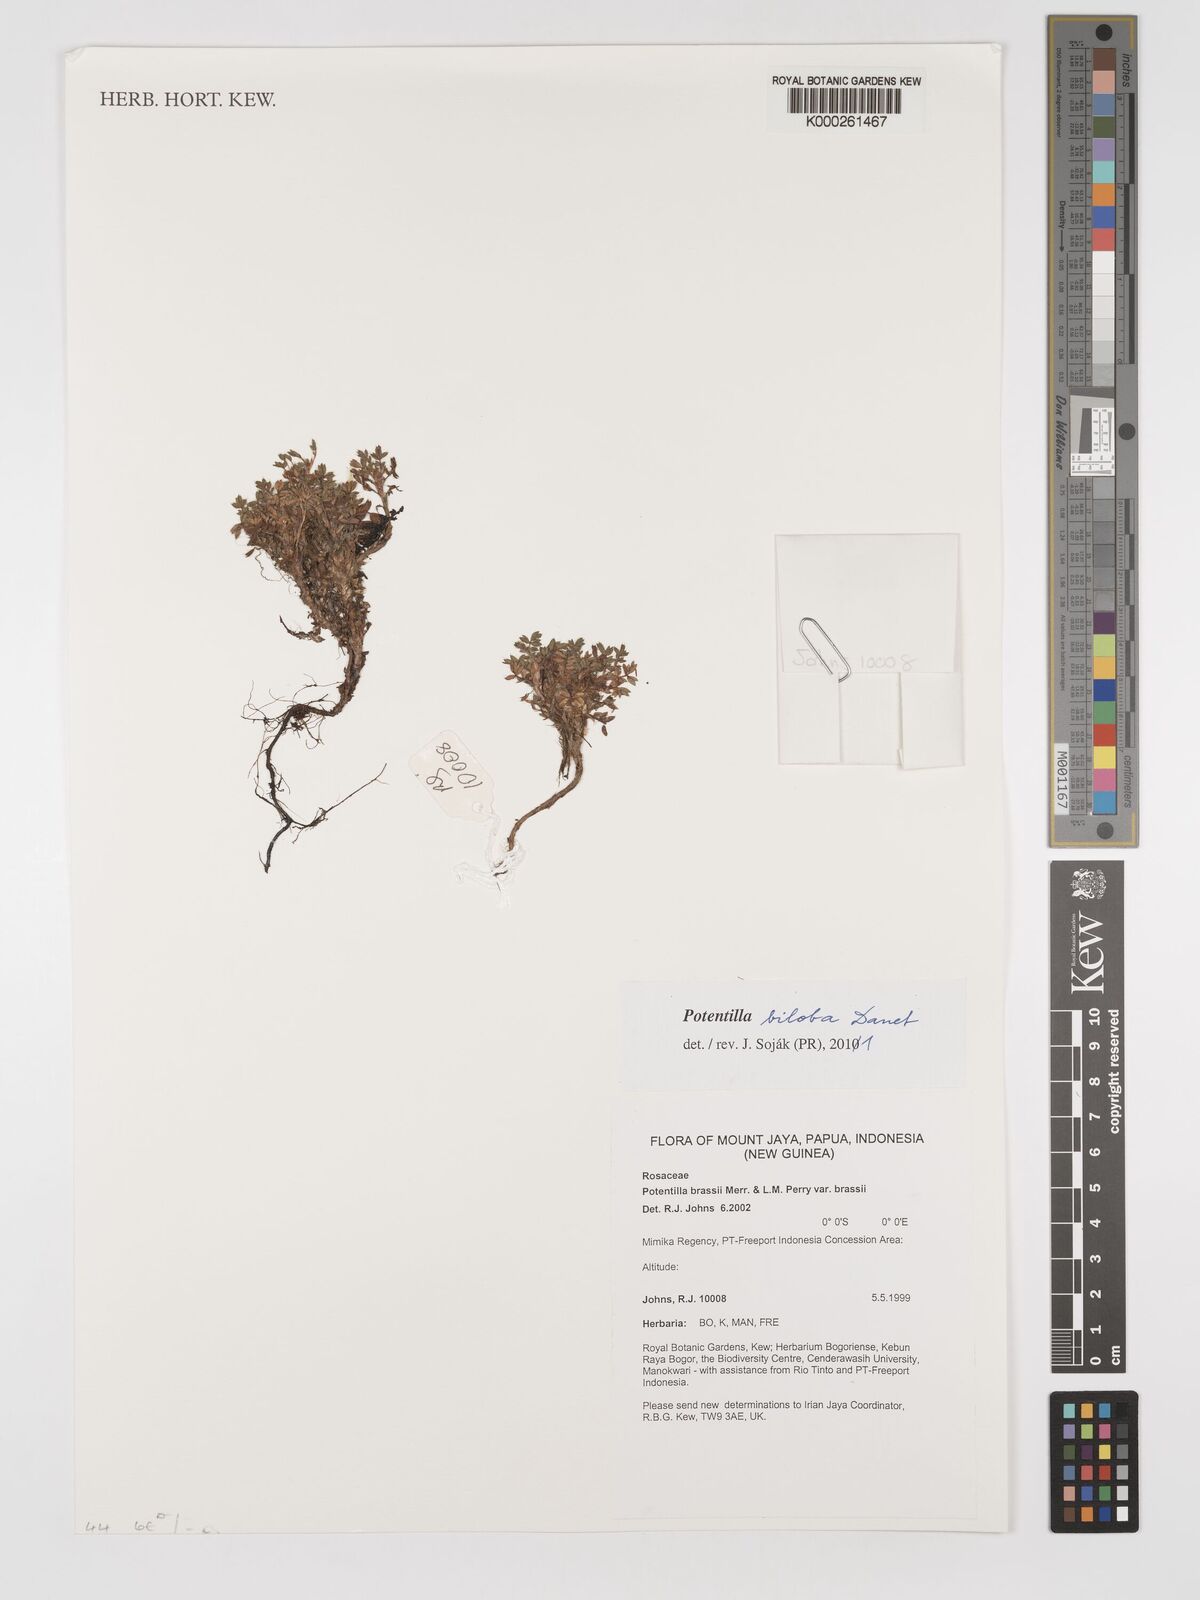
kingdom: Plantae
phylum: Tracheophyta
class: Magnoliopsida
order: Rosales
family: Rosaceae
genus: Argentina
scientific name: Argentina biloba
